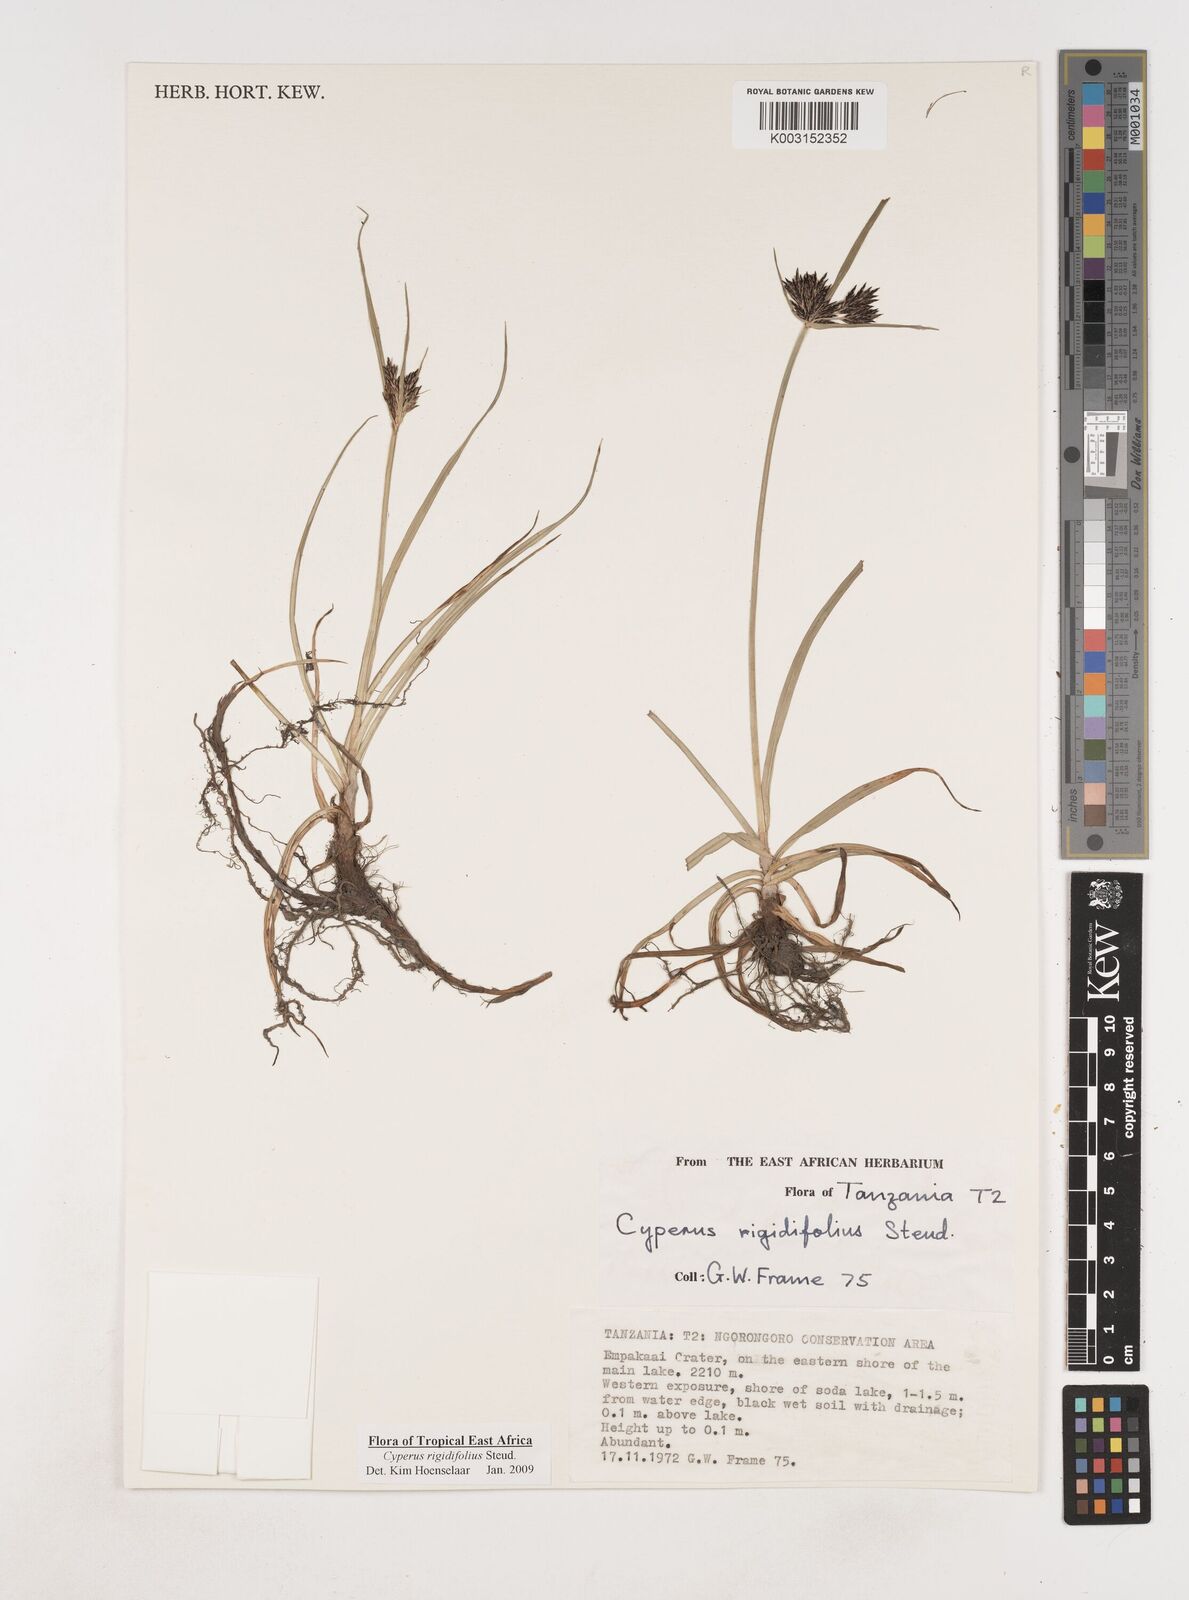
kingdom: Plantae
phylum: Tracheophyta
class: Liliopsida
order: Poales
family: Cyperaceae
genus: Cyperus
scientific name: Cyperus rigidifolius
